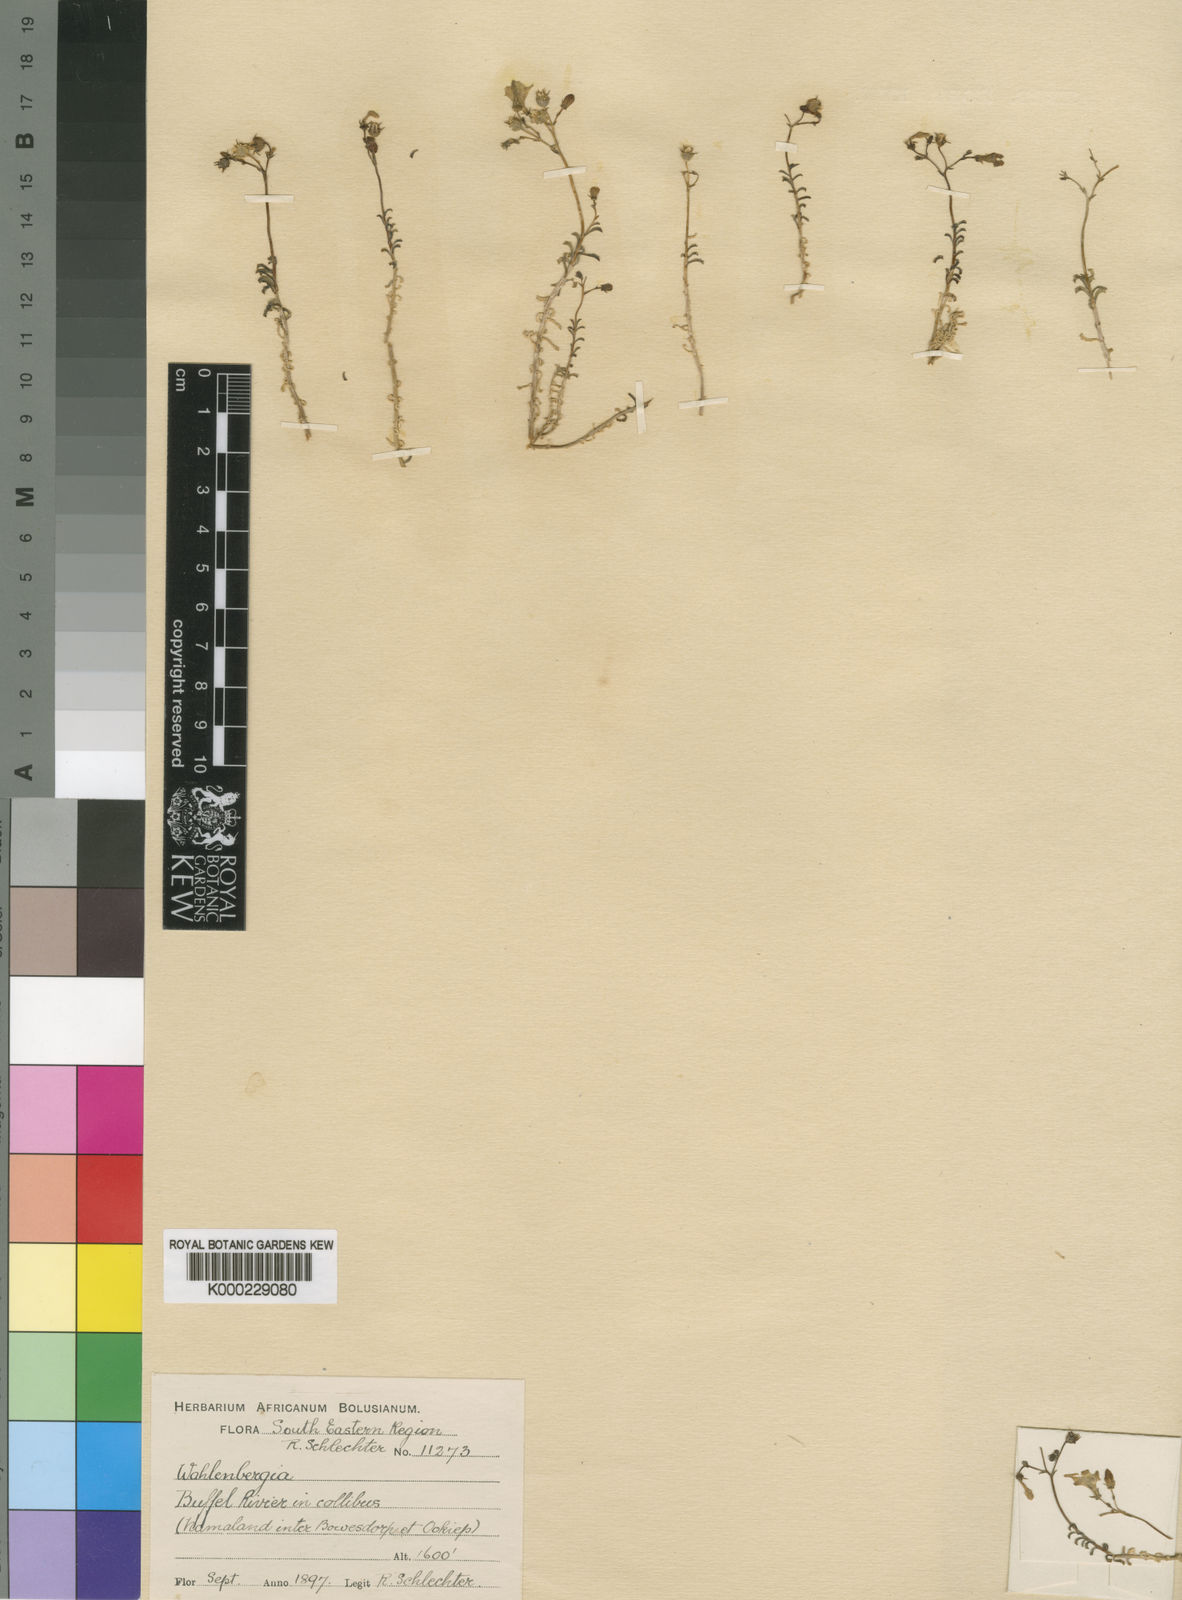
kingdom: Plantae
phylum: Tracheophyta
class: Magnoliopsida
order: Asterales
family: Campanulaceae
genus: Wahlenbergia
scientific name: Wahlenbergia roelliflora
